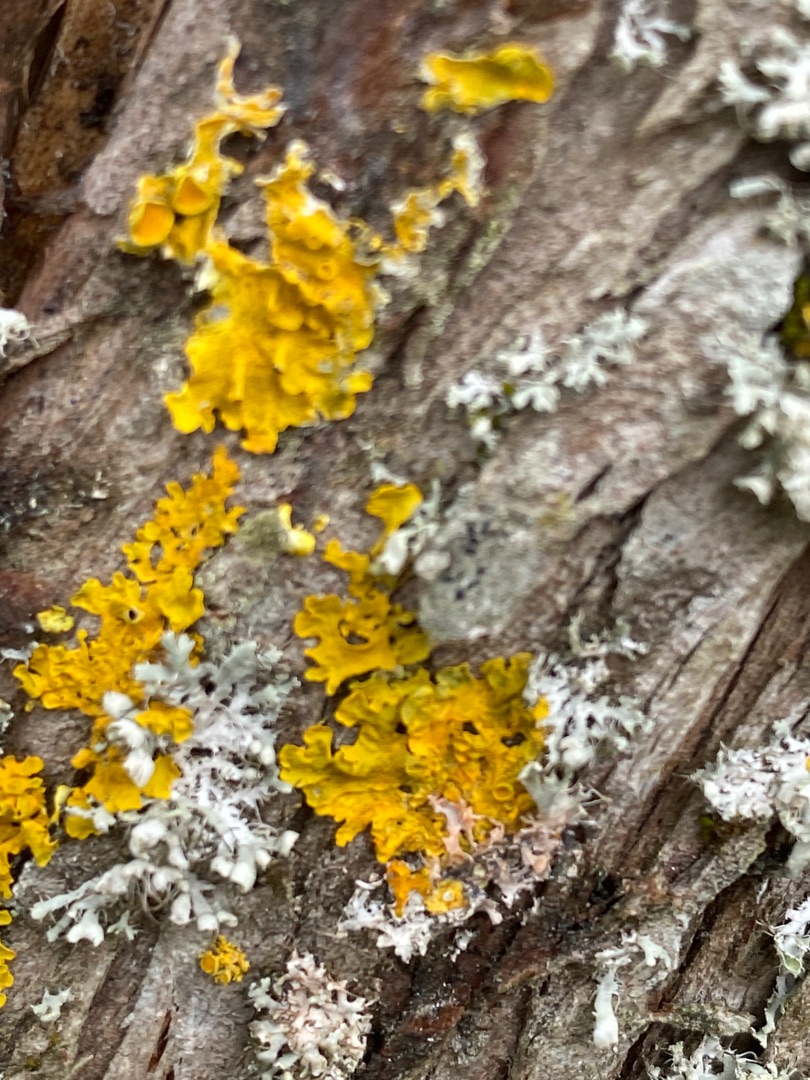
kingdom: Fungi
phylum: Ascomycota
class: Lecanoromycetes
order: Teloschistales
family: Teloschistaceae
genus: Xanthoria
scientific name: Xanthoria parietina
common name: Almindelig væggelav
